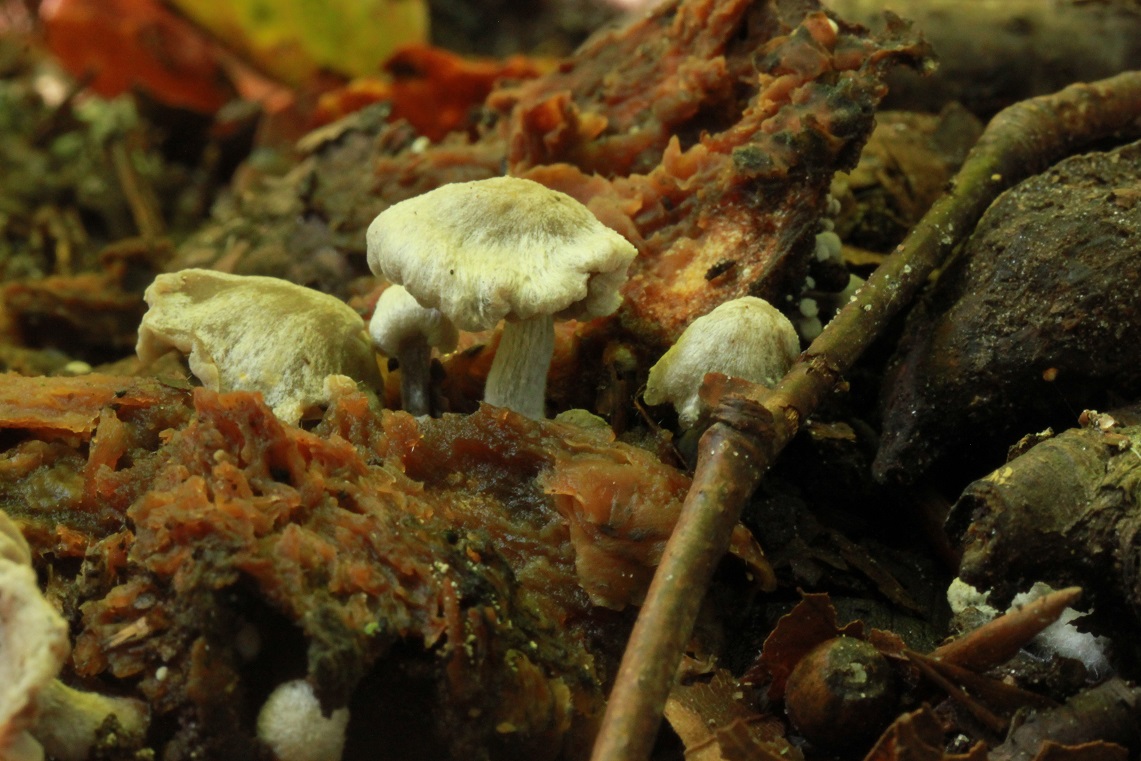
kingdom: Fungi
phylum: Basidiomycota
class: Agaricomycetes
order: Agaricales
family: Lyophyllaceae
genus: Asterophora
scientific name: Asterophora parasitica
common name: grå snyltehat
